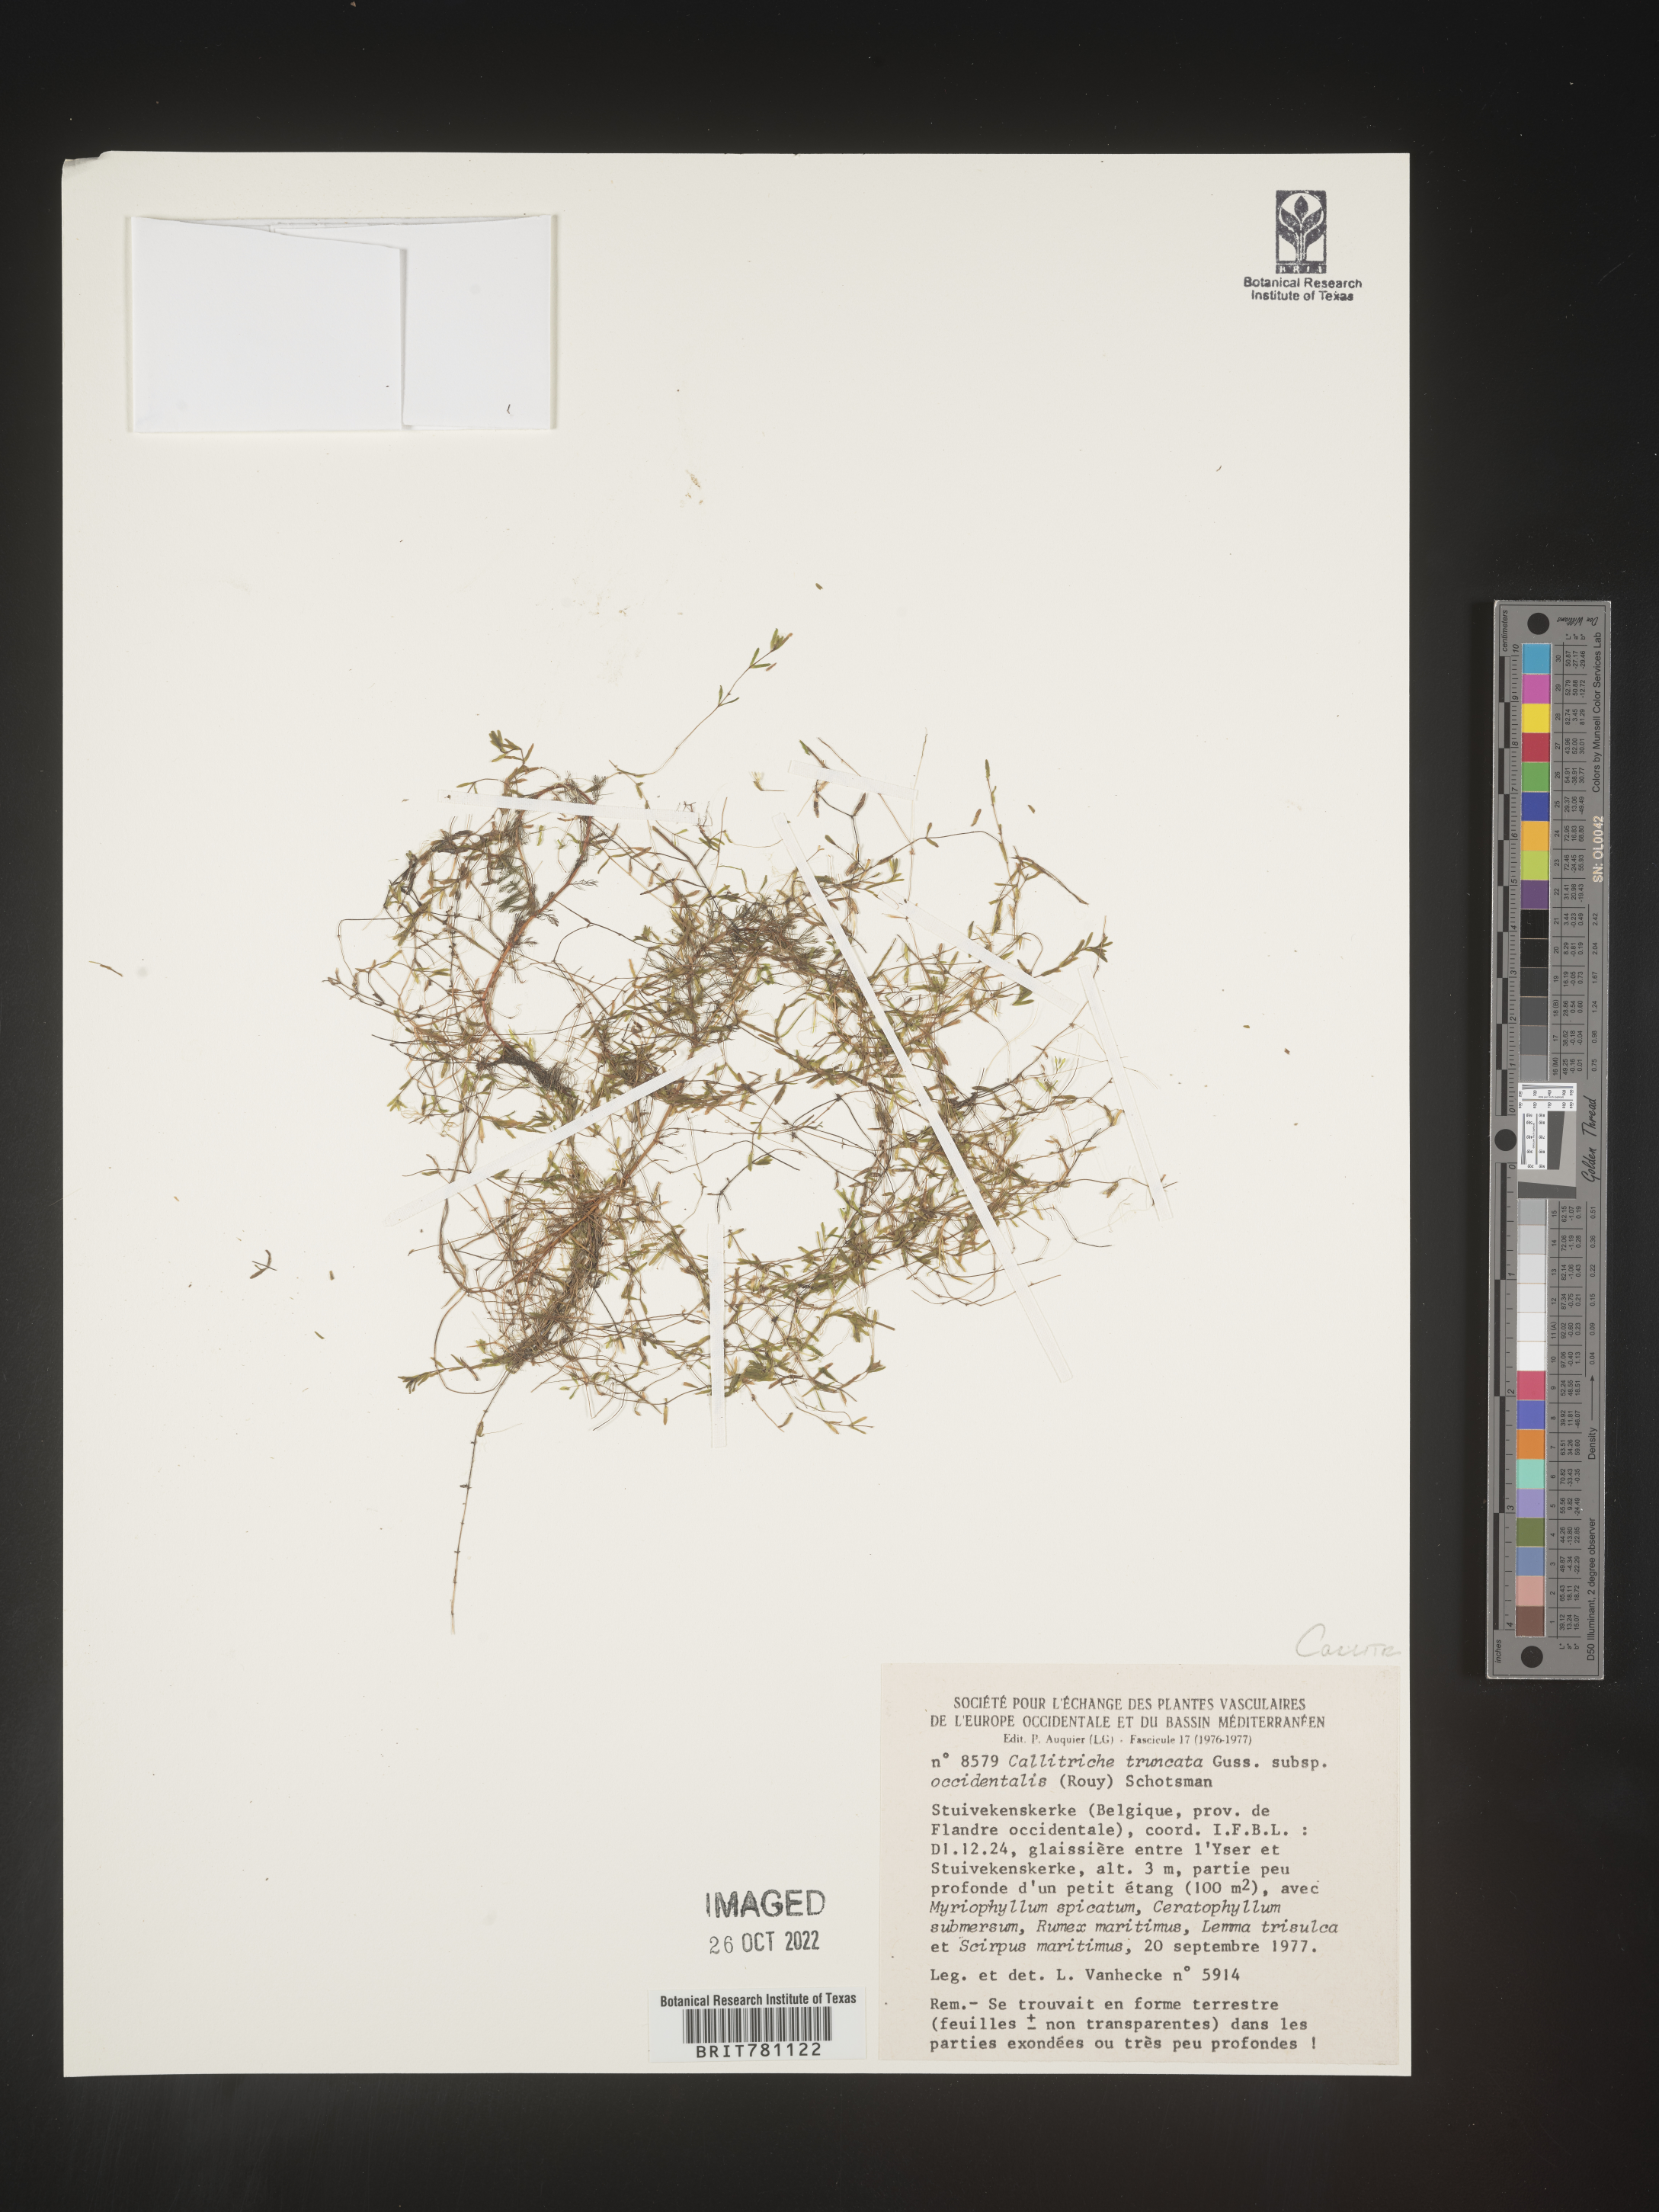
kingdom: Plantae
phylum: Tracheophyta
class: Magnoliopsida
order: Lamiales
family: Plantaginaceae
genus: Callitriche
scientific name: Callitriche
